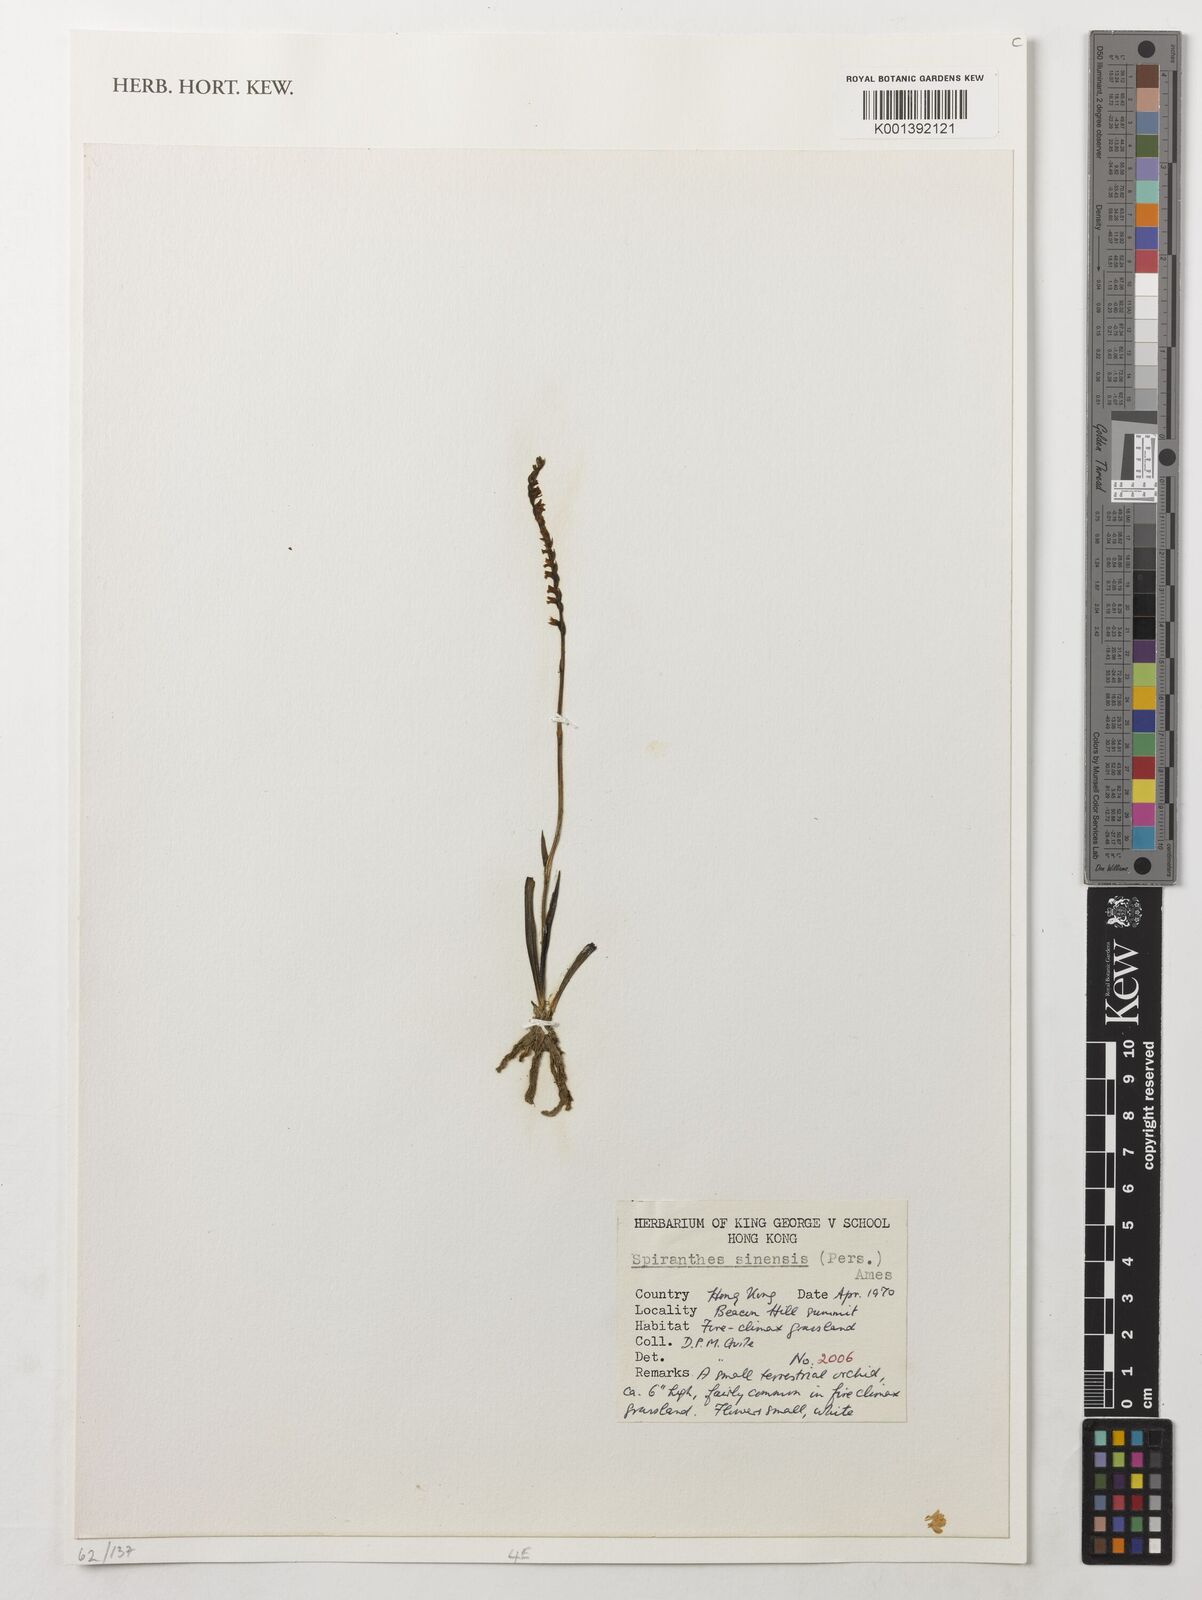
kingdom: Plantae
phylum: Tracheophyta
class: Liliopsida
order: Asparagales
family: Orchidaceae
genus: Spiranthes
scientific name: Spiranthes sinensis
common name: Chinese spiranthes
